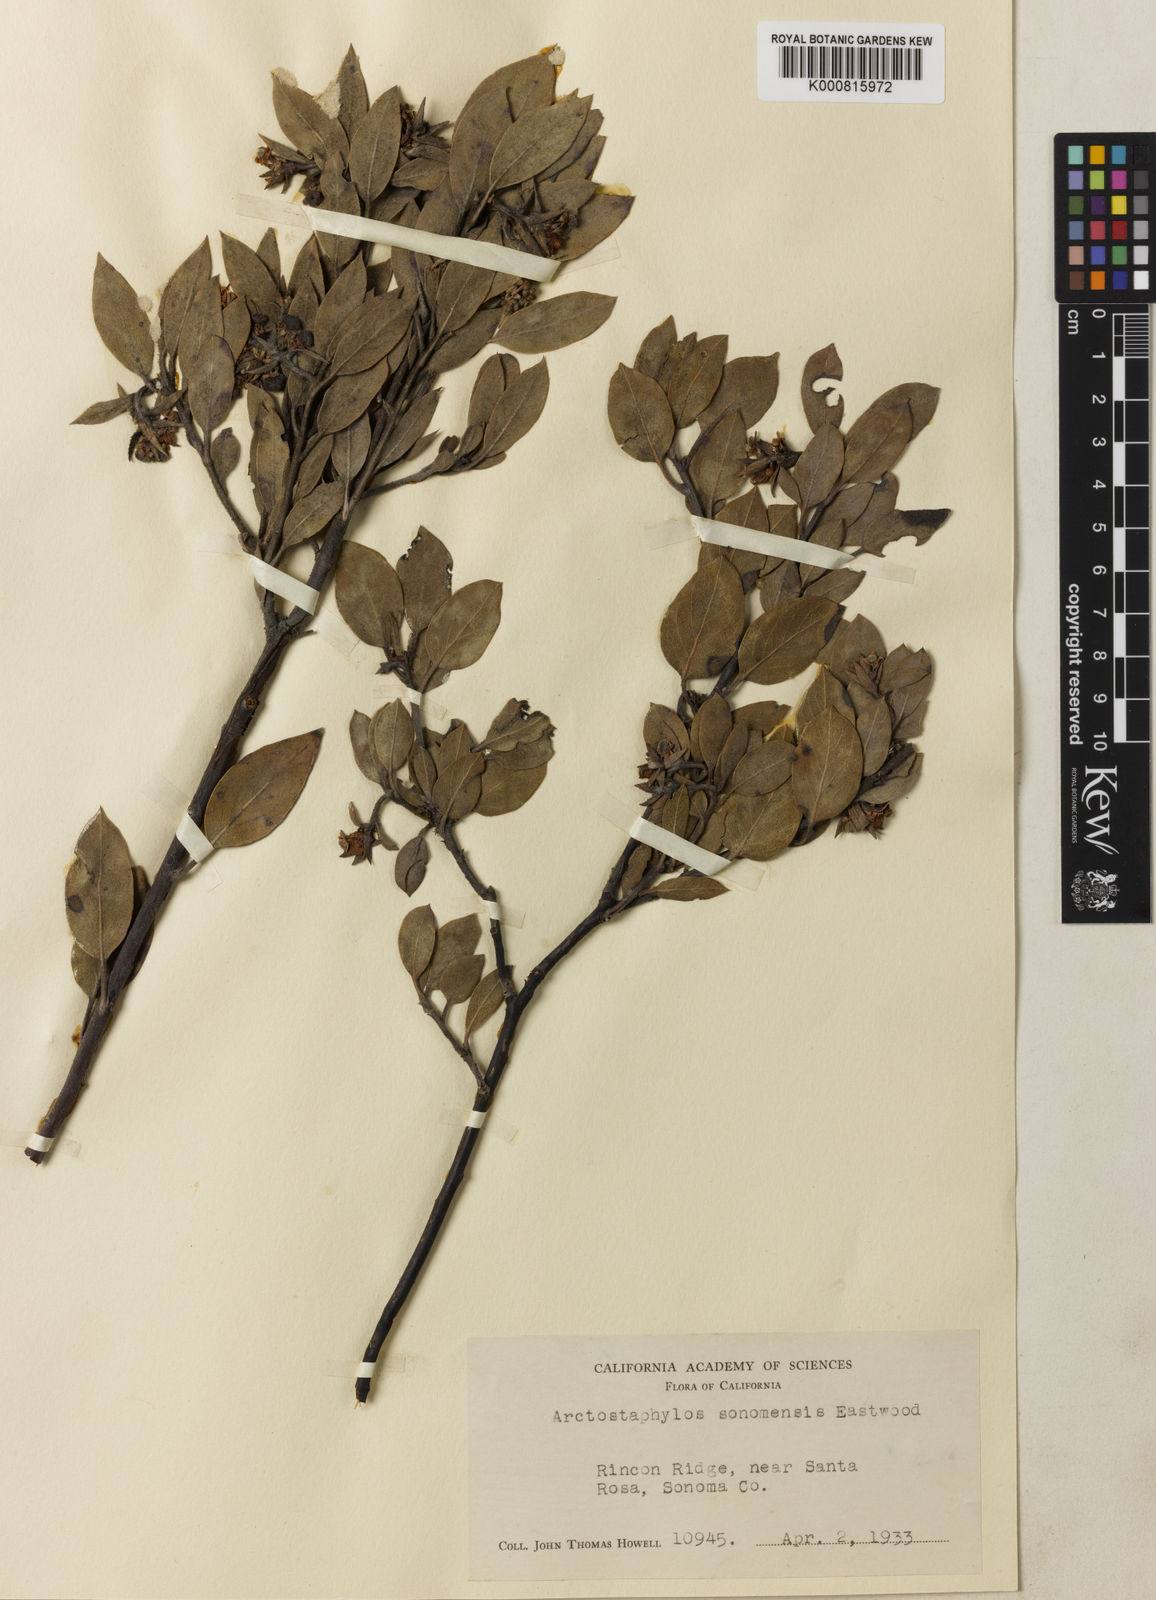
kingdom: Plantae
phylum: Tracheophyta
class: Magnoliopsida
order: Ericales
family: Ericaceae
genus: Arctostaphylos
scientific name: Arctostaphylos canescens
